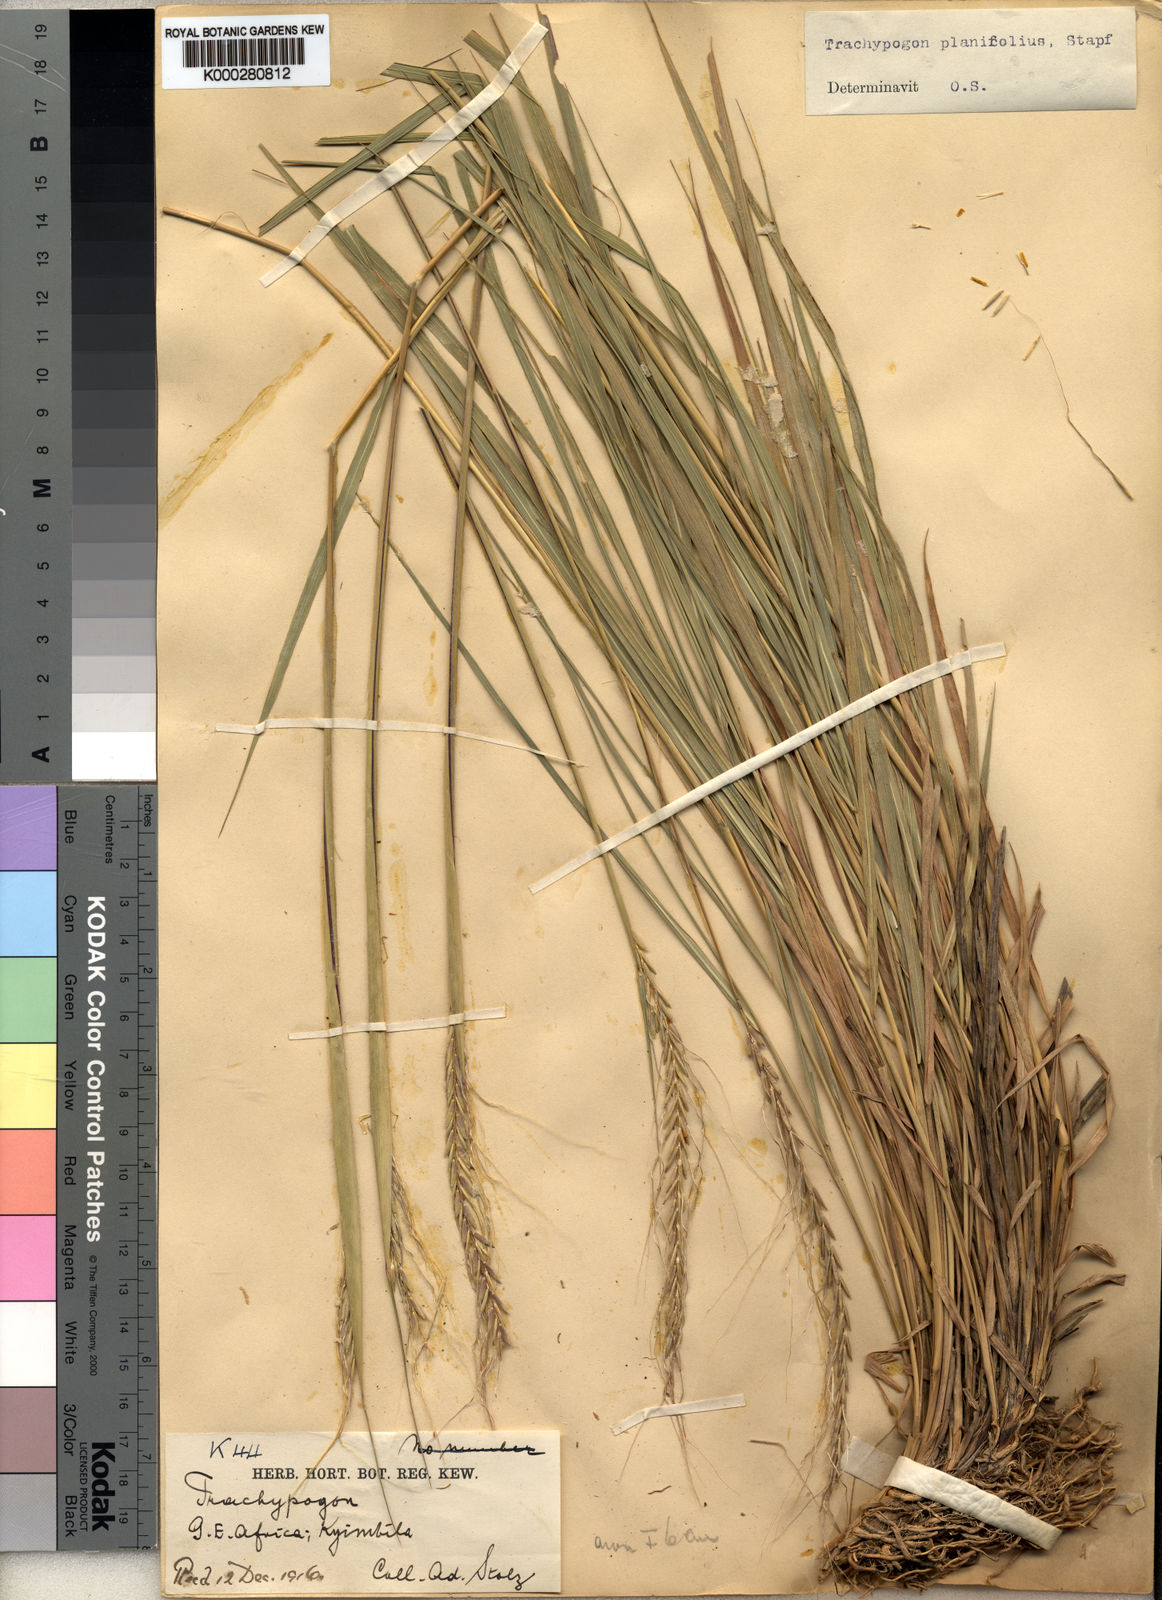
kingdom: Plantae
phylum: Tracheophyta
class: Liliopsida
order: Poales
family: Poaceae
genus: Trachypogon
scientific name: Trachypogon spicatus
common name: Crinkle-awn
